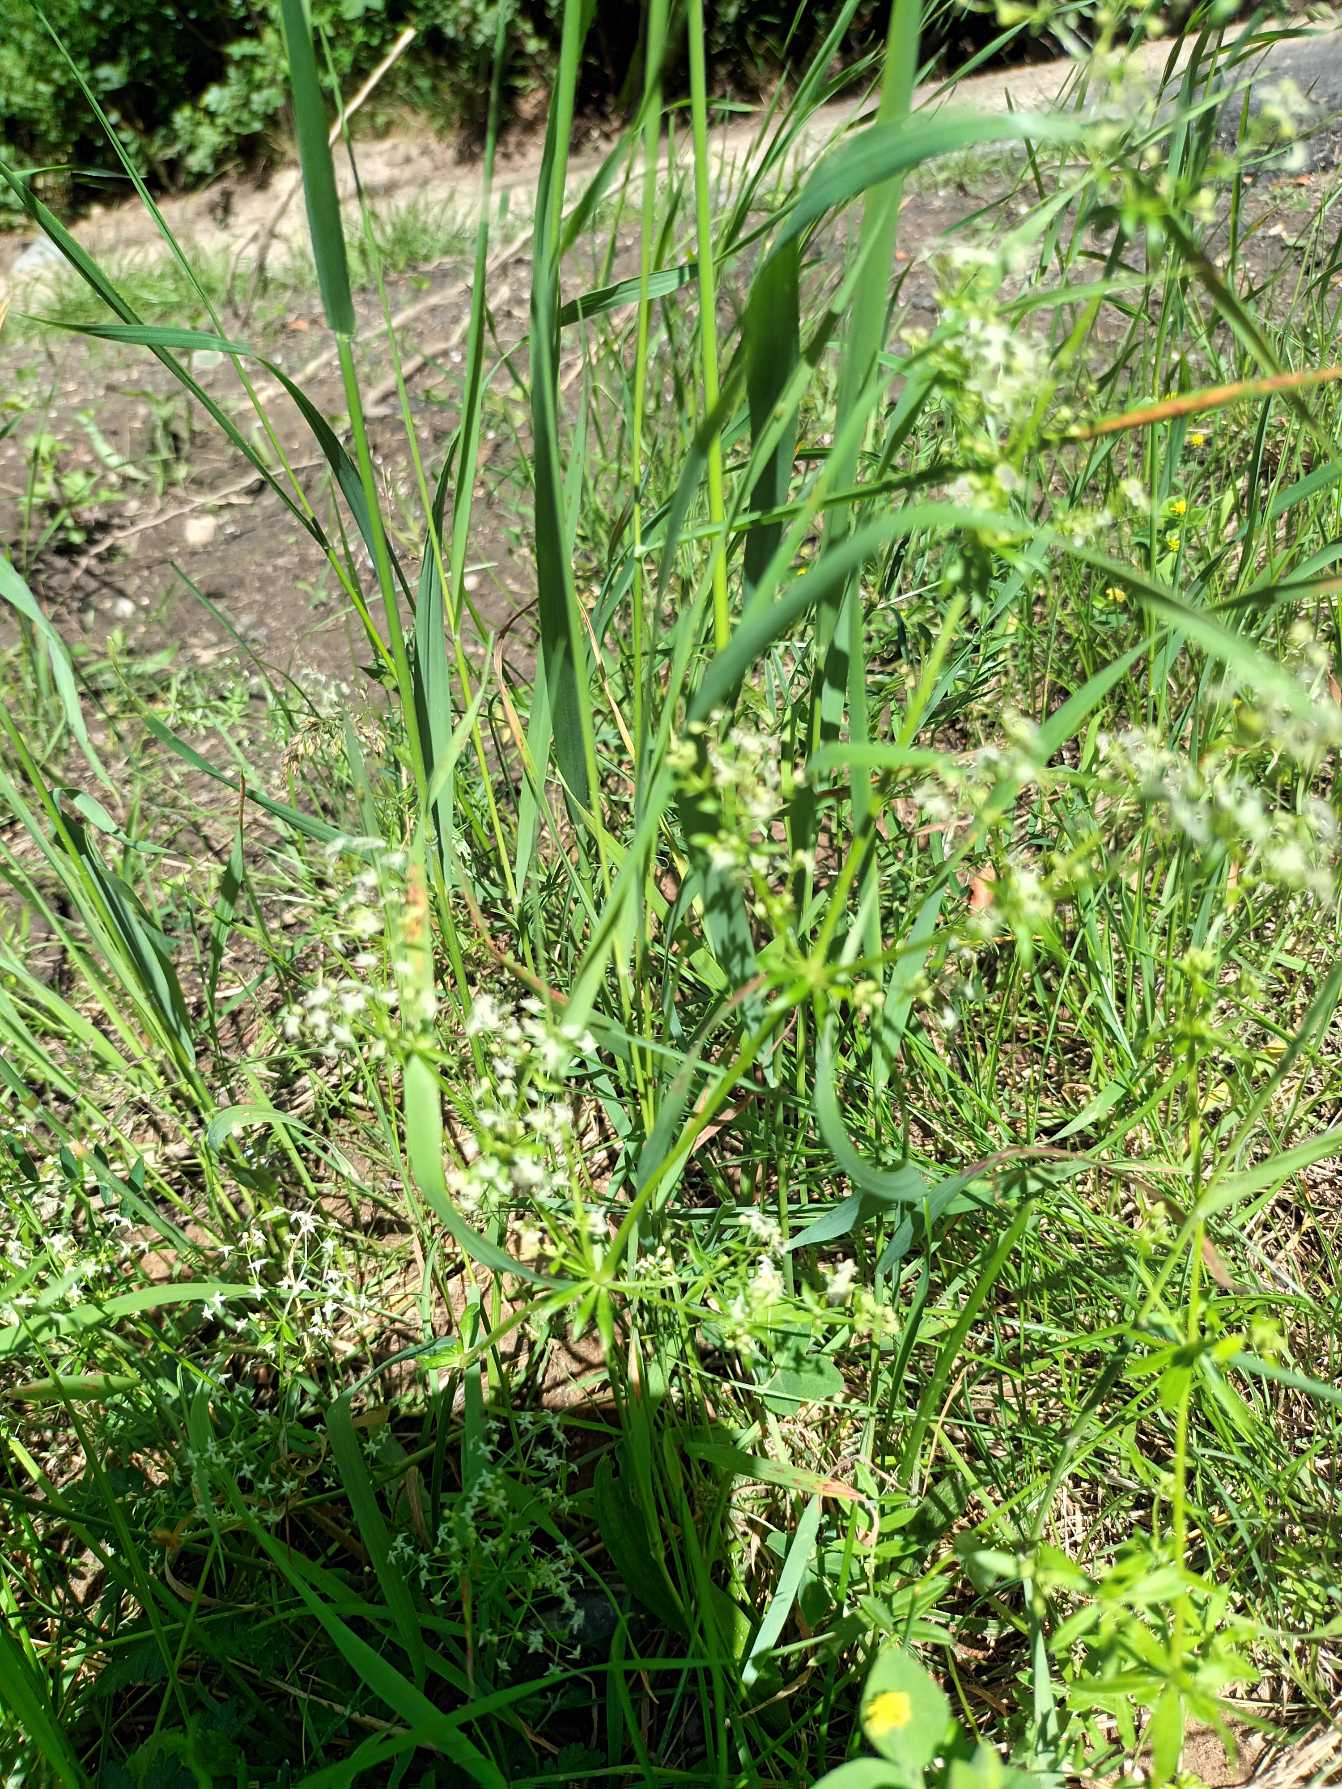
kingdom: Plantae
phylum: Tracheophyta
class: Magnoliopsida
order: Gentianales
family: Rubiaceae
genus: Galium
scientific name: Galium mollugo
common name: Hvid snerre
